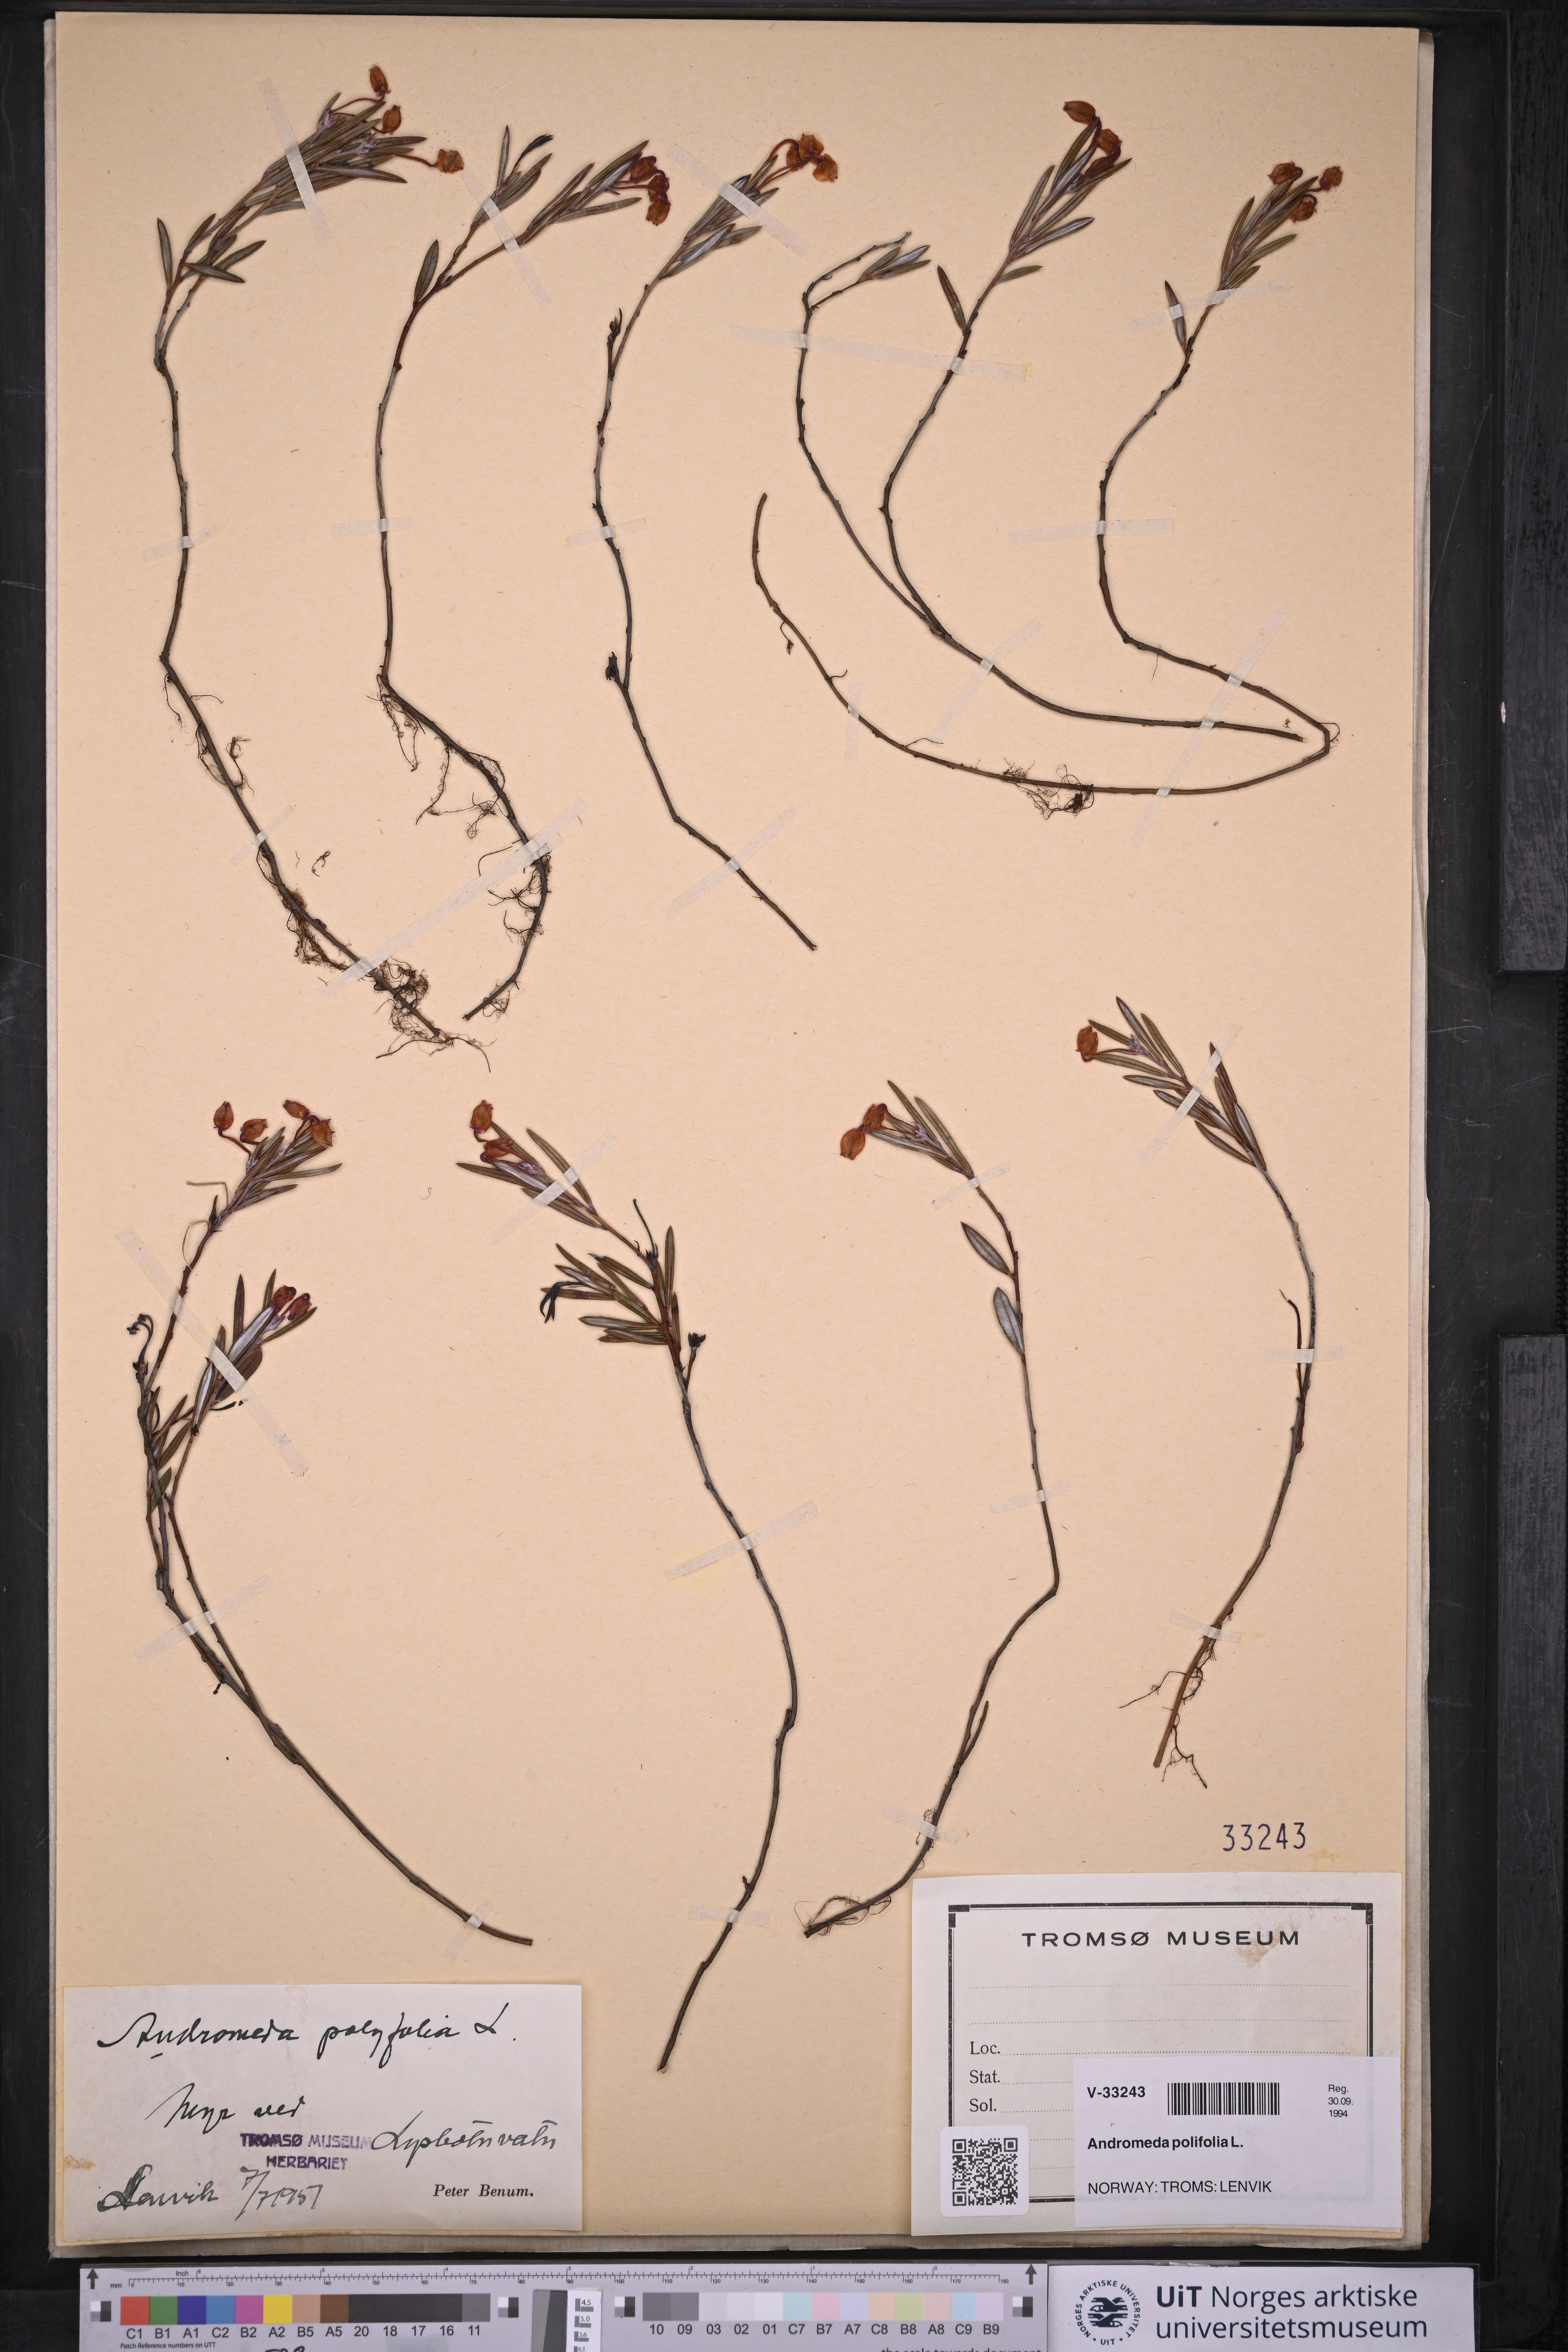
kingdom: Plantae
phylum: Tracheophyta
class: Magnoliopsida
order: Ericales
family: Ericaceae
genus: Andromeda
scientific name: Andromeda polifolia
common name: Bog-rosemary
